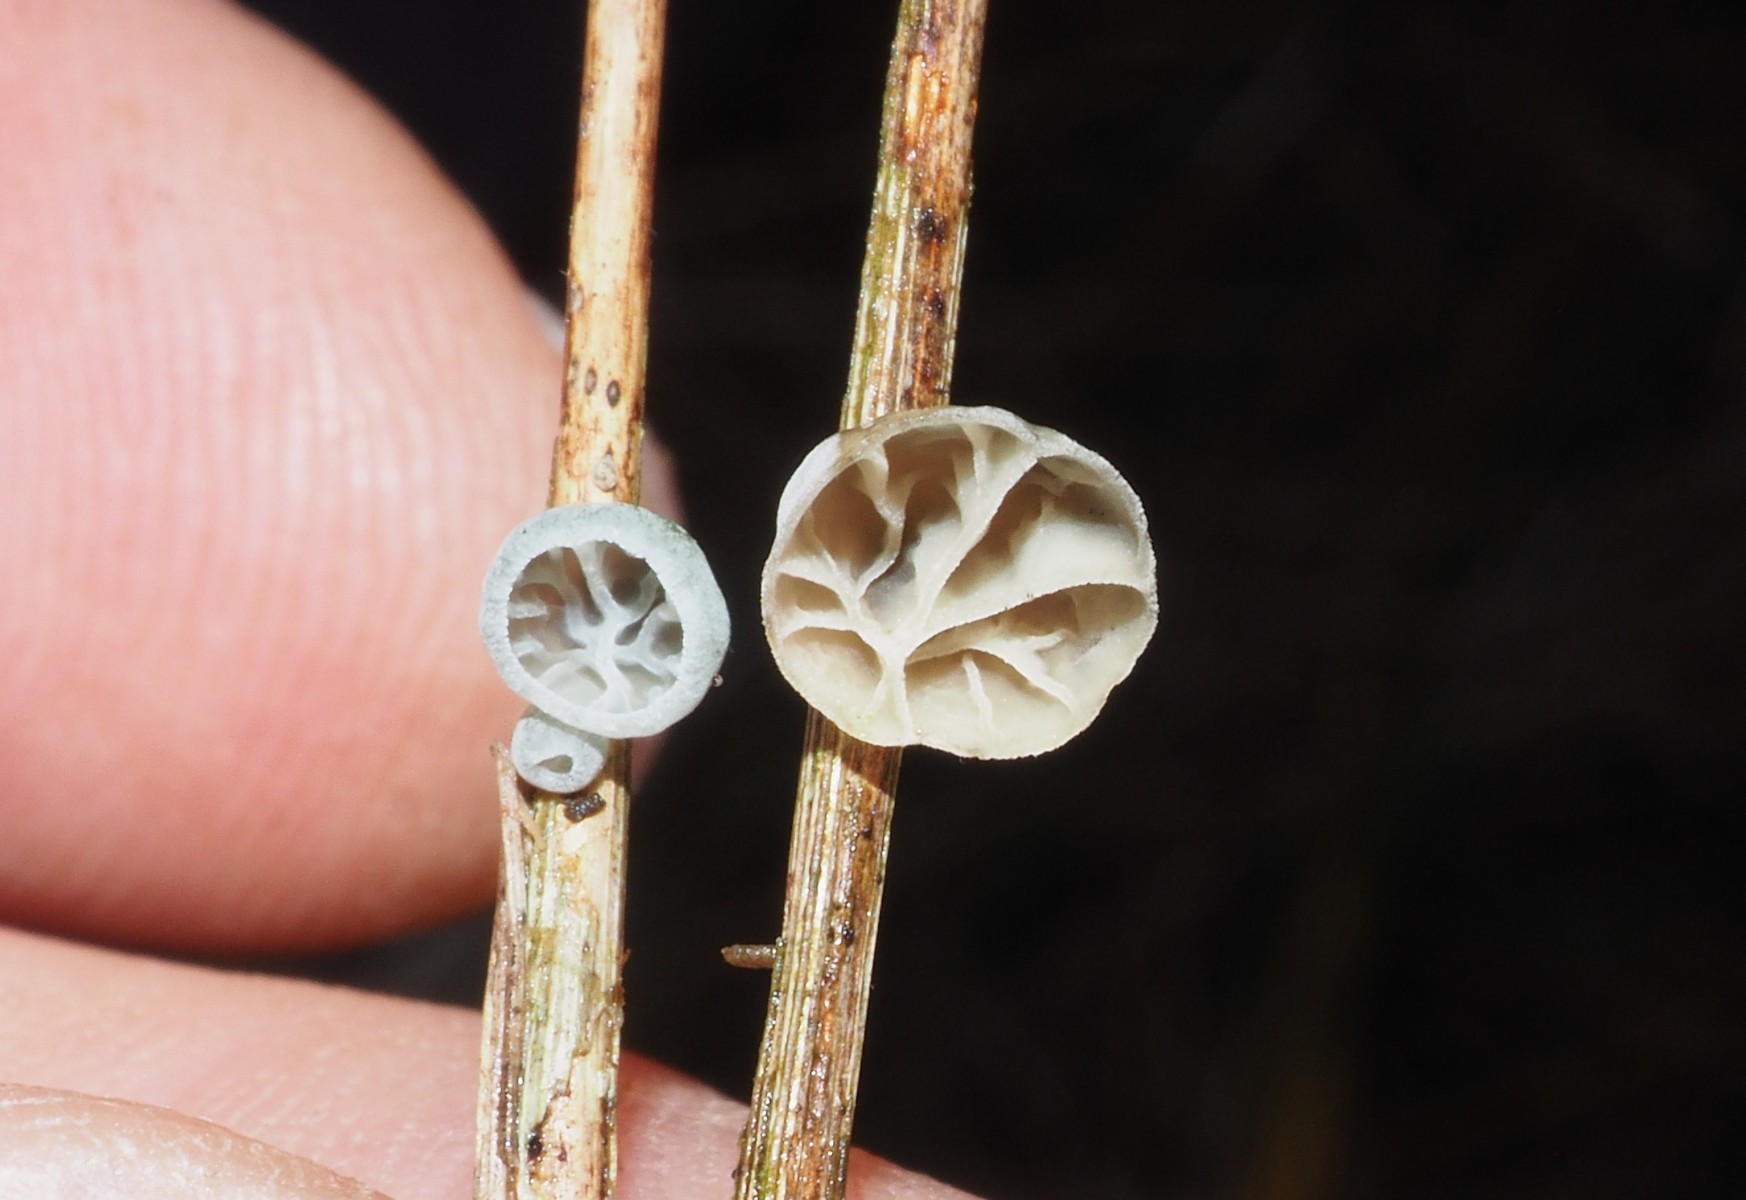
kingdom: Fungi
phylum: Basidiomycota
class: Agaricomycetes
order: Agaricales
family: Marasmiaceae
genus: Campanella
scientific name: Campanella caesia
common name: bruskøre
